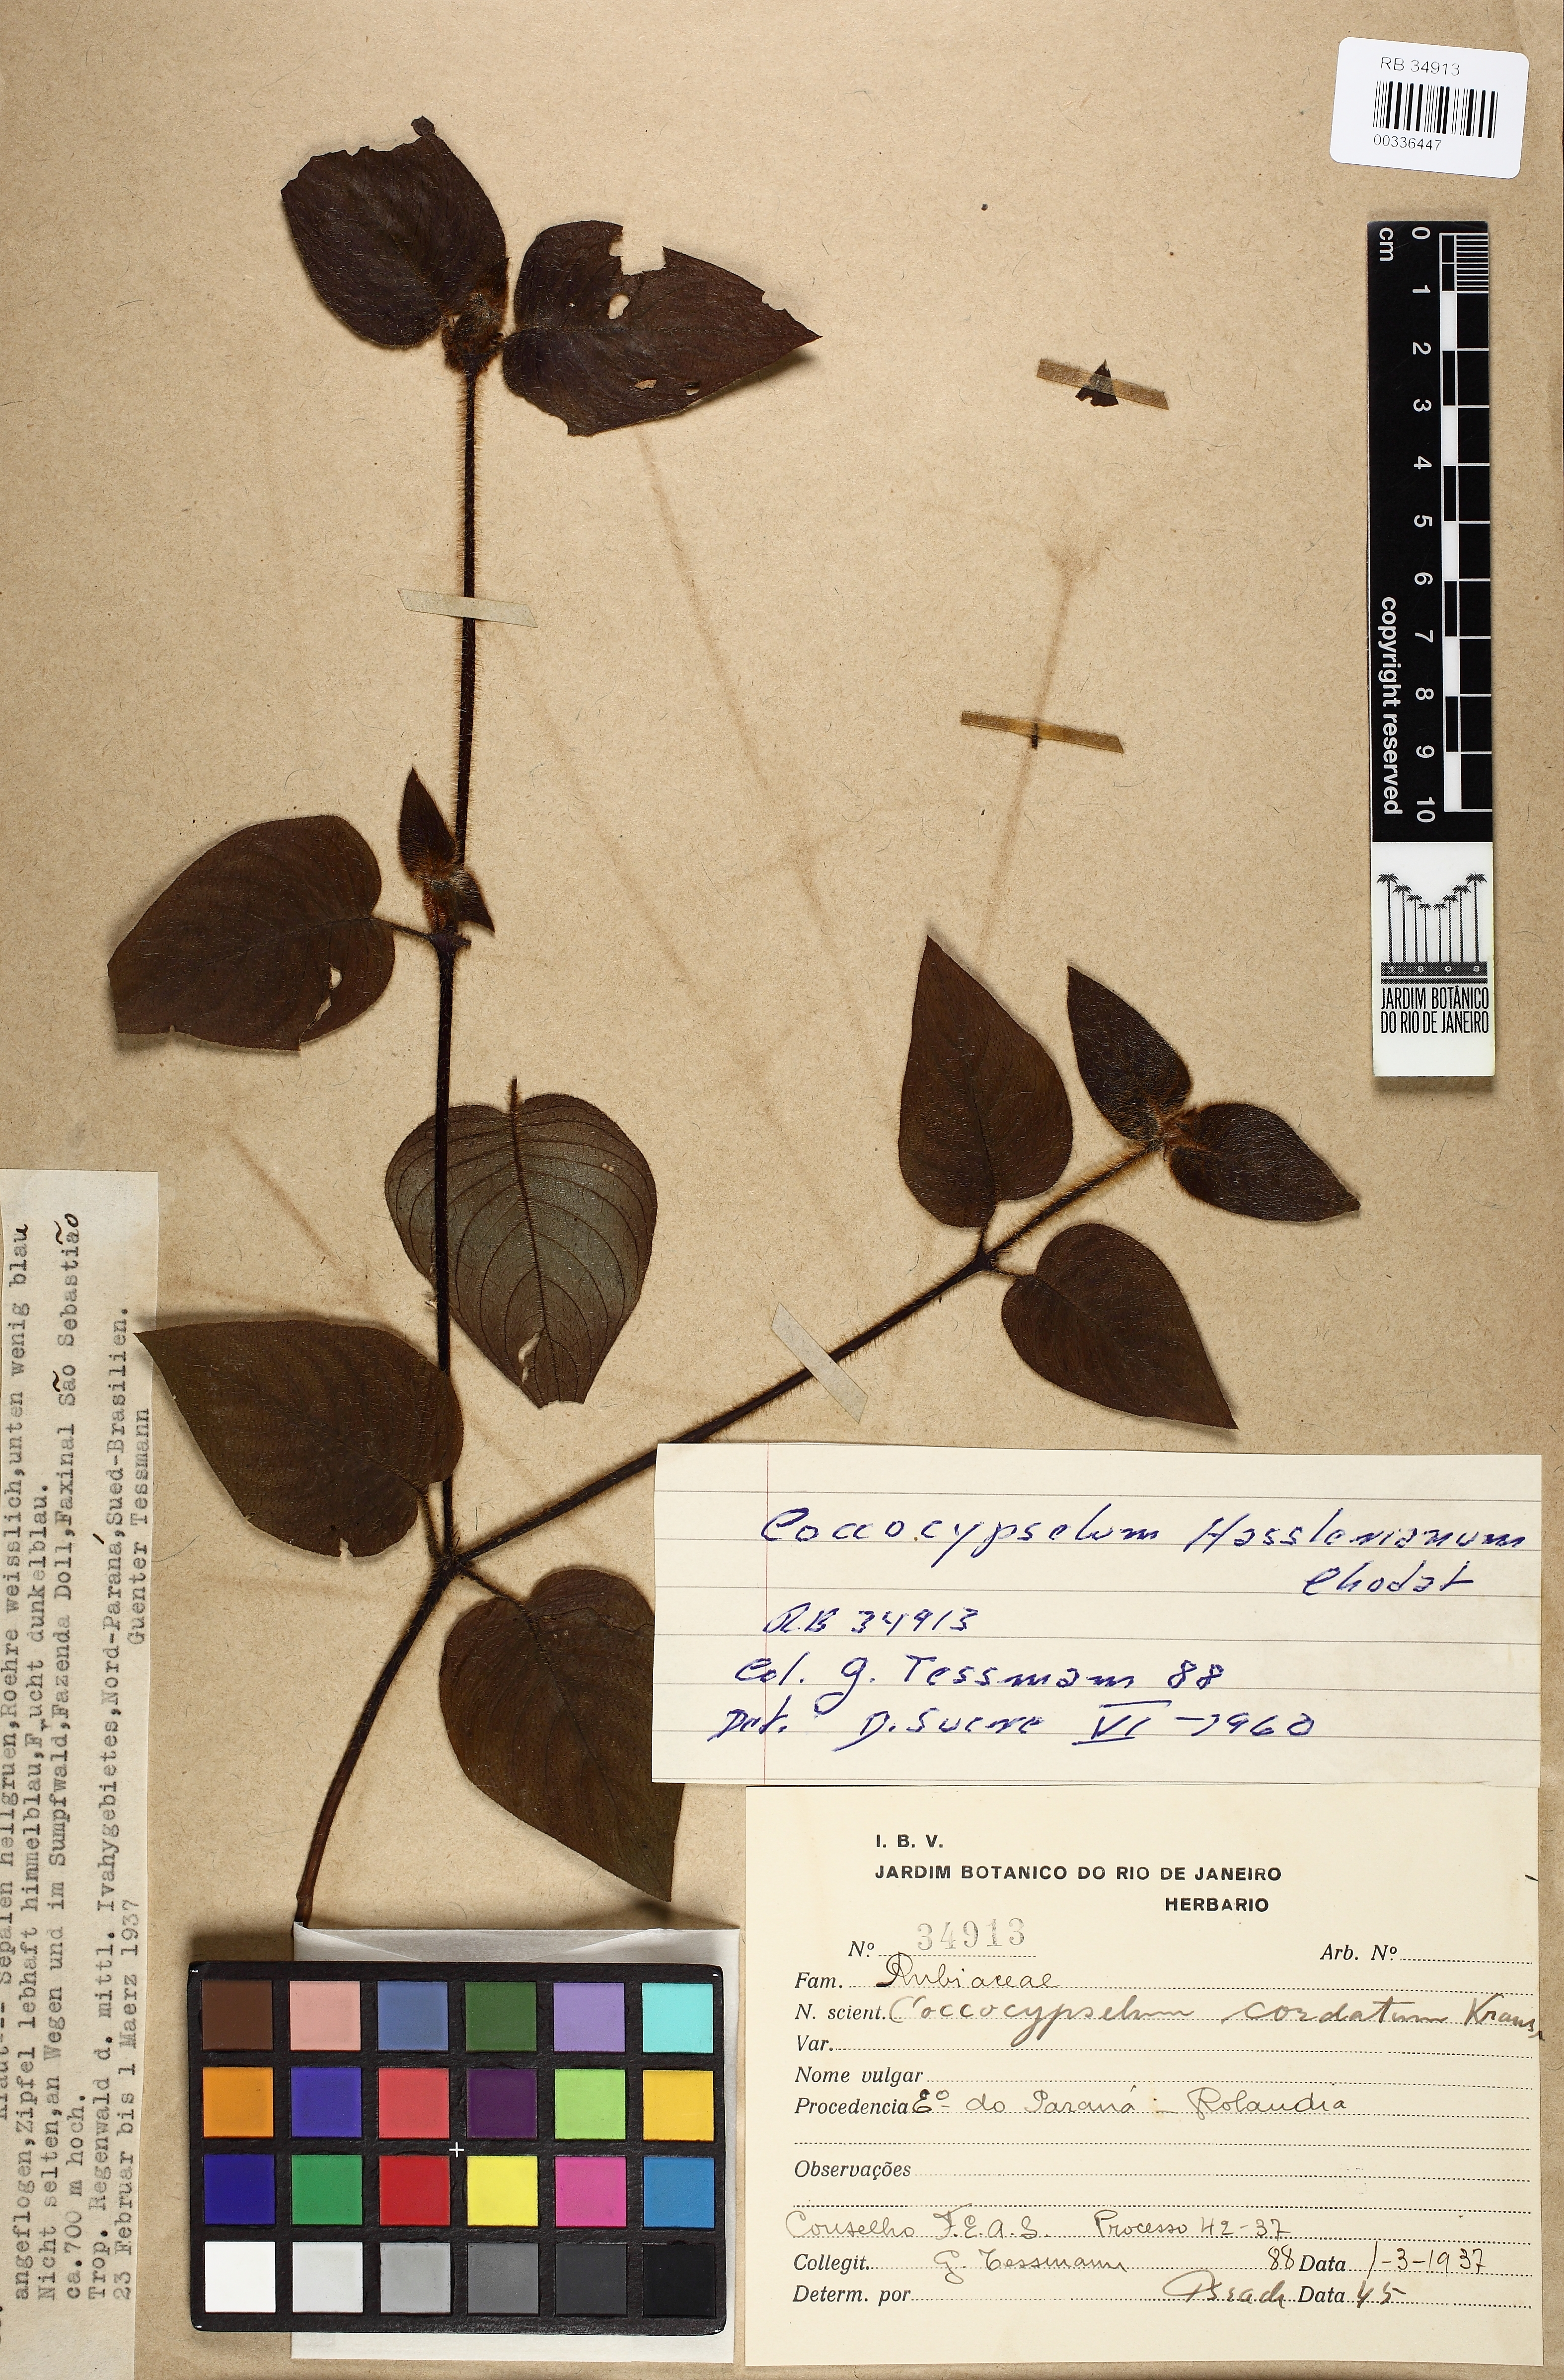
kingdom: Plantae
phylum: Tracheophyta
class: Magnoliopsida
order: Gentianales
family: Rubiaceae
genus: Coccocypselum
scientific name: Coccocypselum hasslerianum
